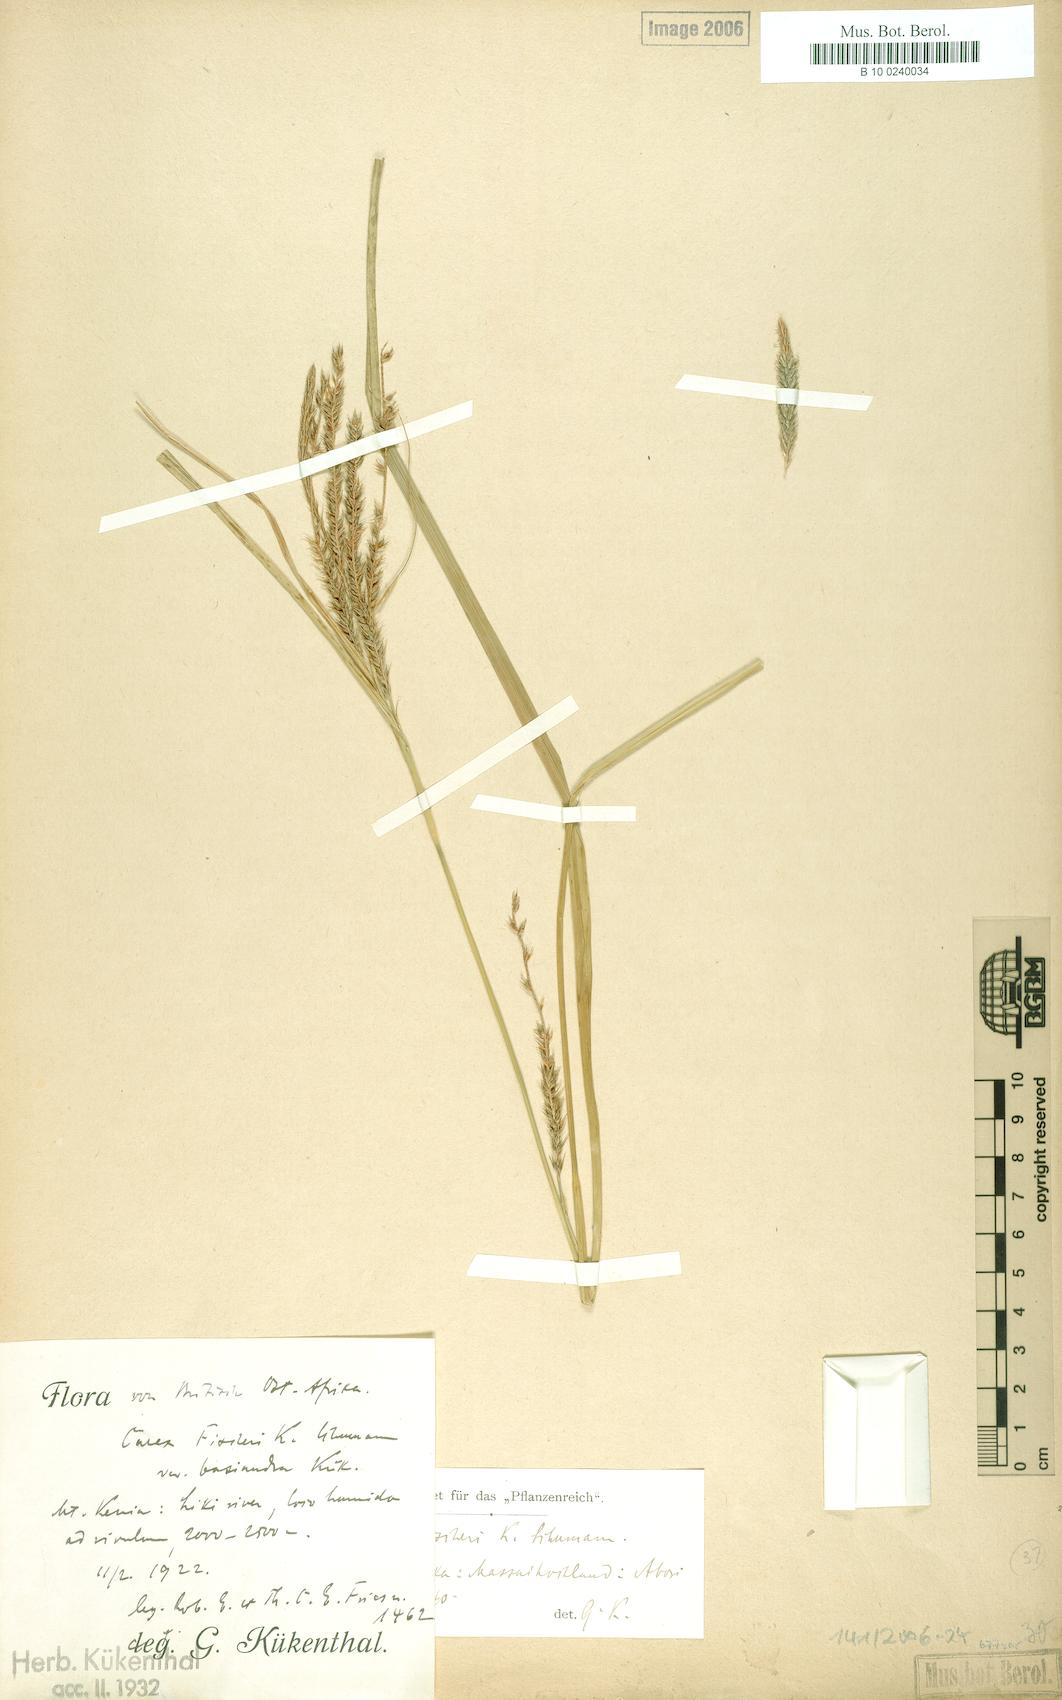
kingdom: Plantae
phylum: Tracheophyta
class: Liliopsida
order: Poales
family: Cyperaceae
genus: Carex
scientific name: Carex fischeri
